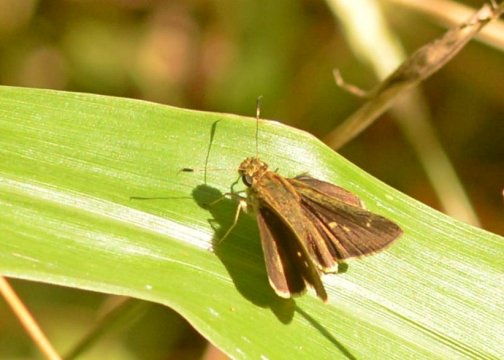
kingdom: Animalia
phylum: Arthropoda
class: Insecta
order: Lepidoptera
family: Hesperiidae
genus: Euphyes
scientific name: Euphyes vestris
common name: Dun Skipper
